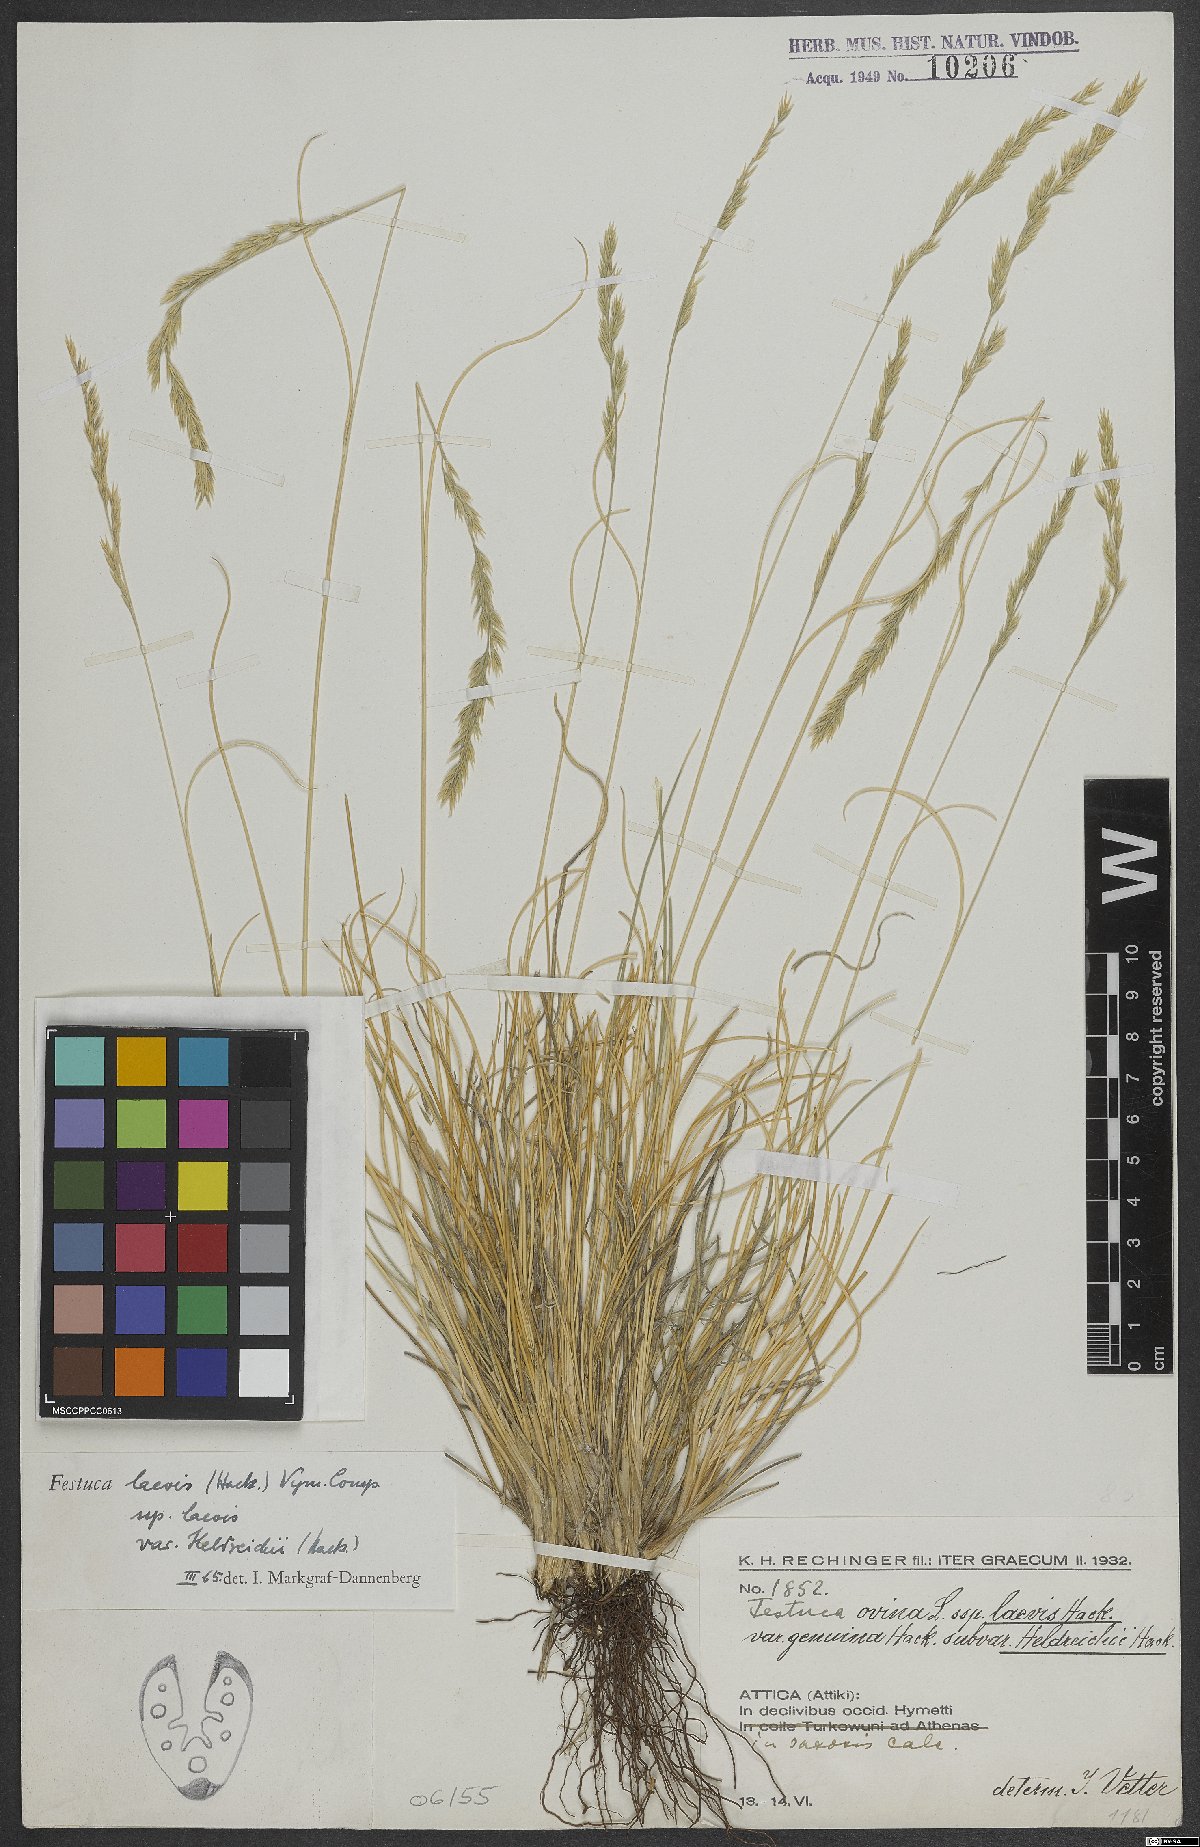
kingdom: Plantae
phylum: Tracheophyta
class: Liliopsida
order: Poales
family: Poaceae
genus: Festuca
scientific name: Festuca laevis
